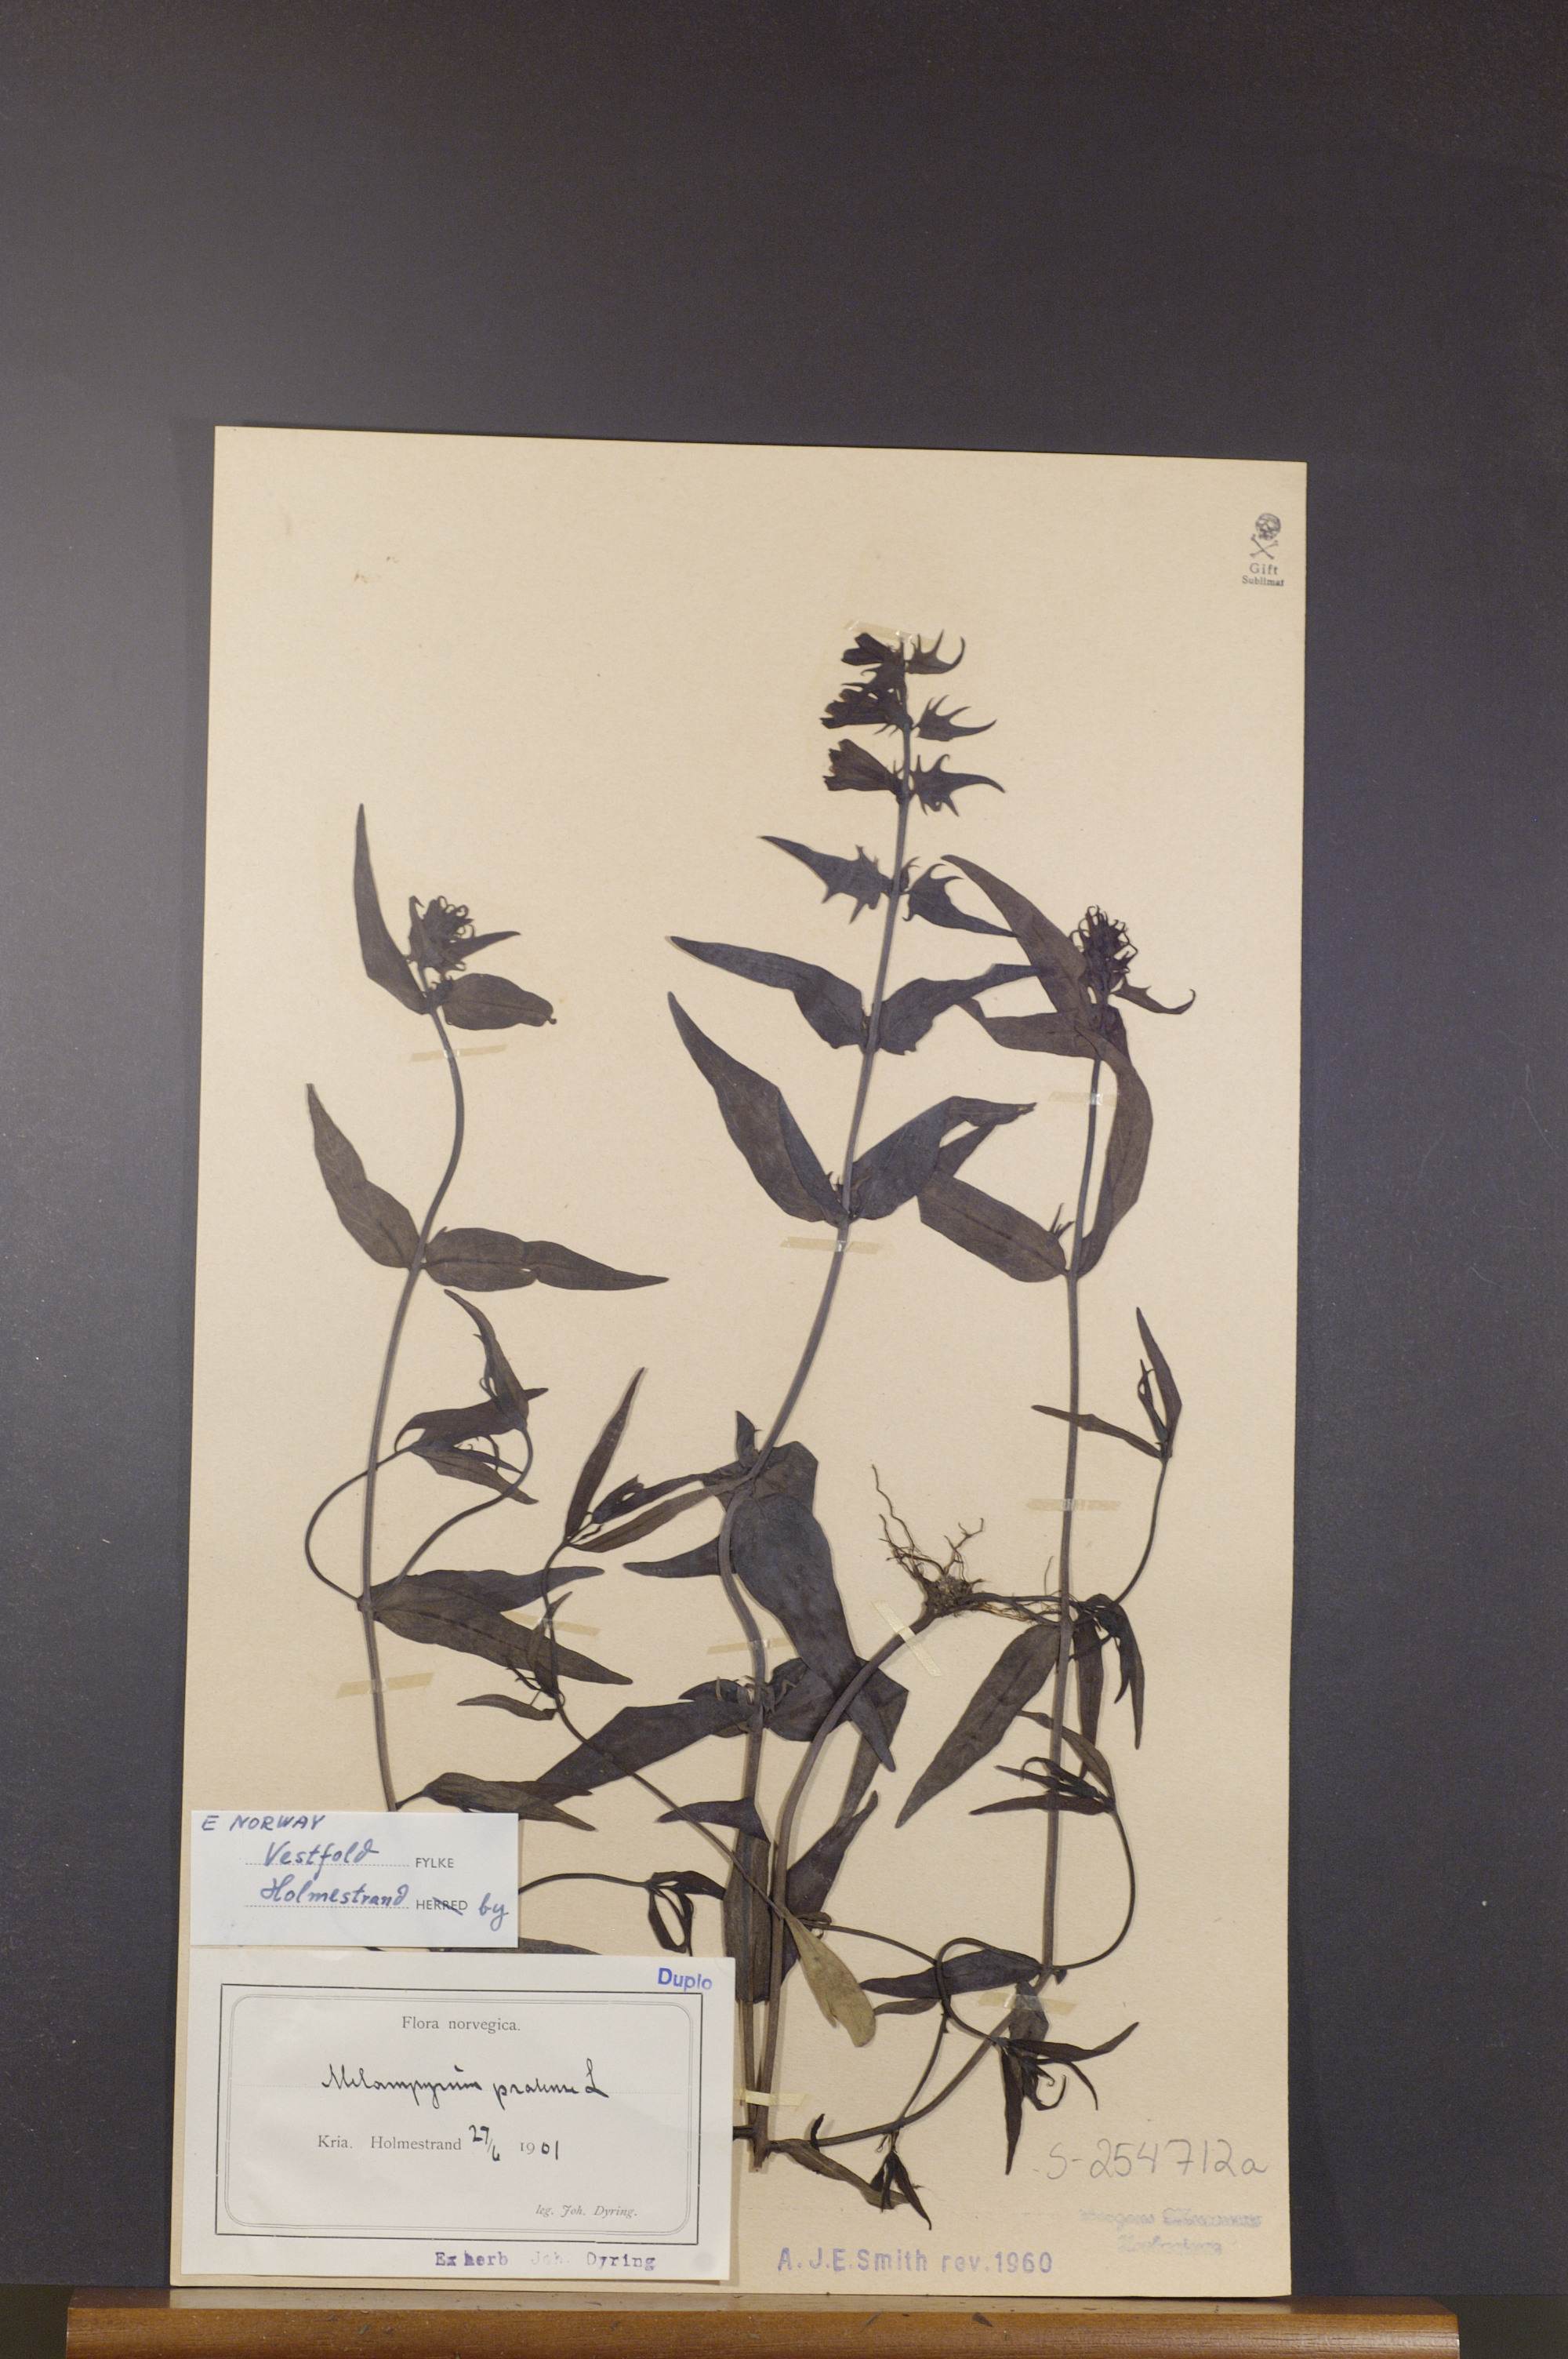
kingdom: Plantae
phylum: Tracheophyta
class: Magnoliopsida
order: Lamiales
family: Orobanchaceae
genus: Melampyrum
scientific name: Melampyrum pratense
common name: Common cow-wheat
